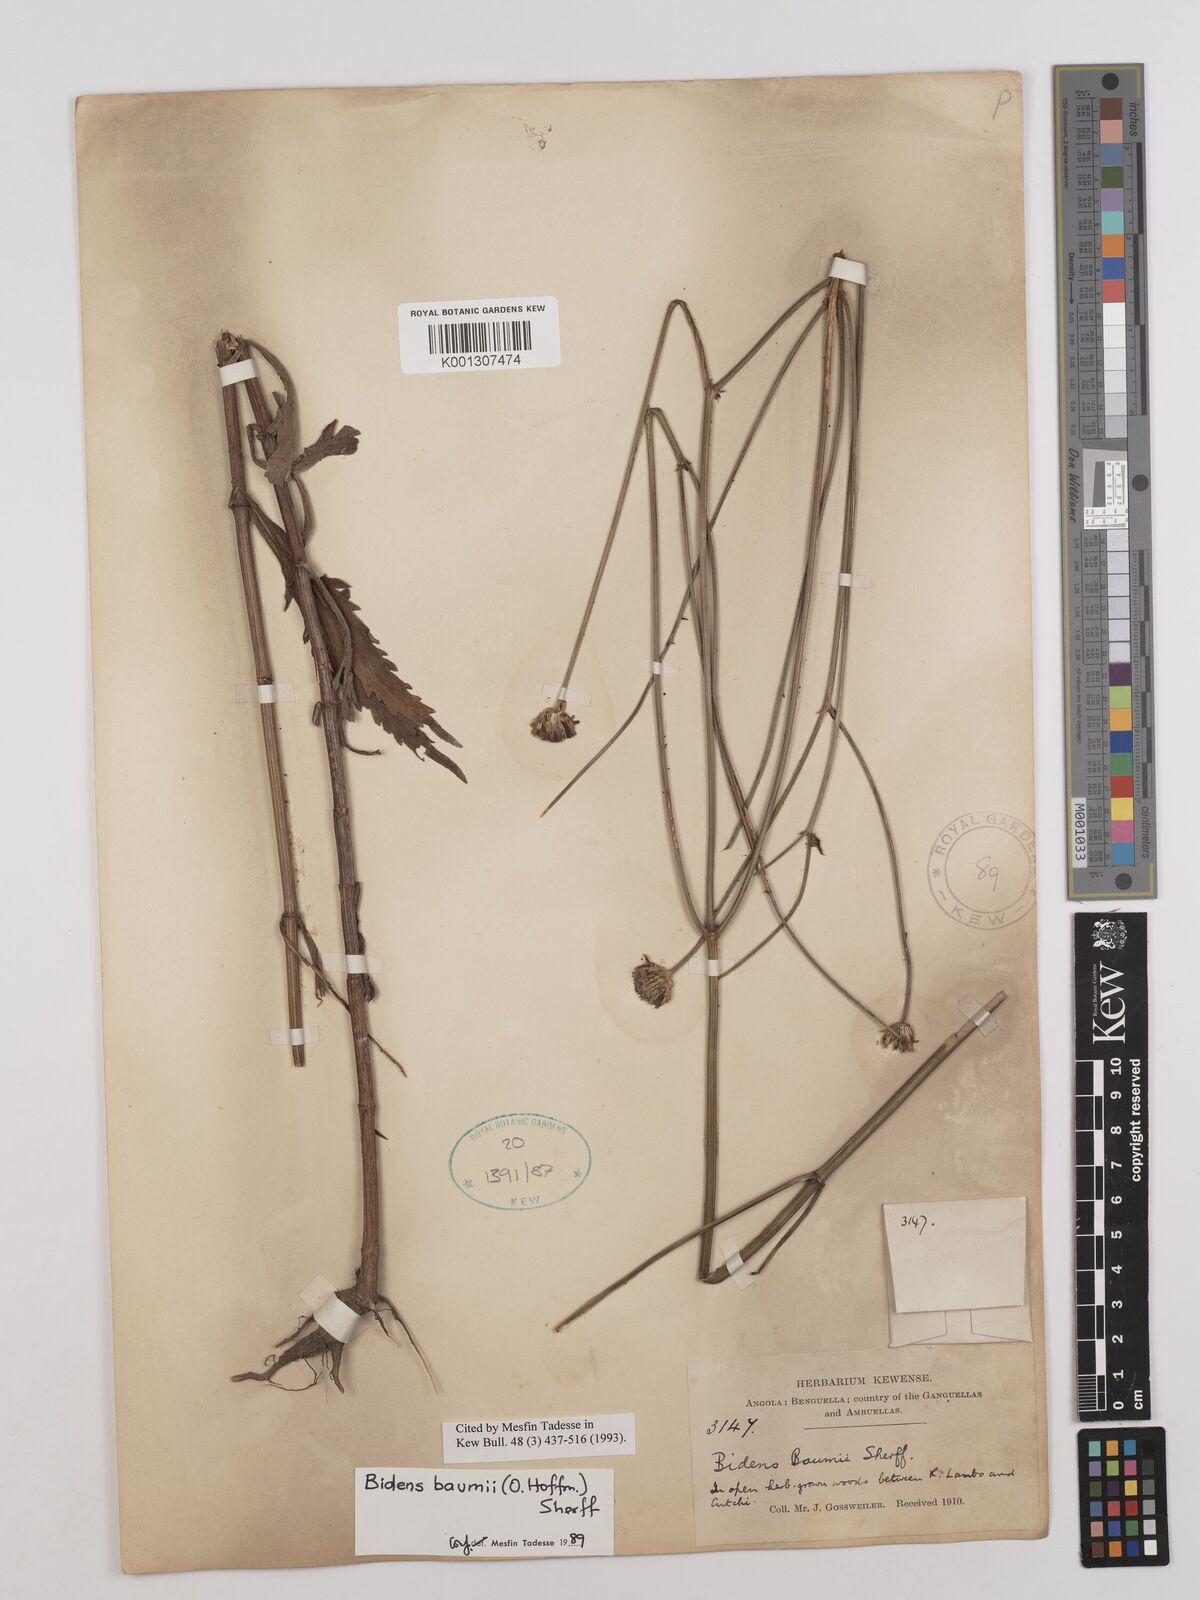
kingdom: Plantae
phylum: Tracheophyta
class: Magnoliopsida
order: Asterales
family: Asteraceae
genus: Bidens
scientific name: Bidens baumii
